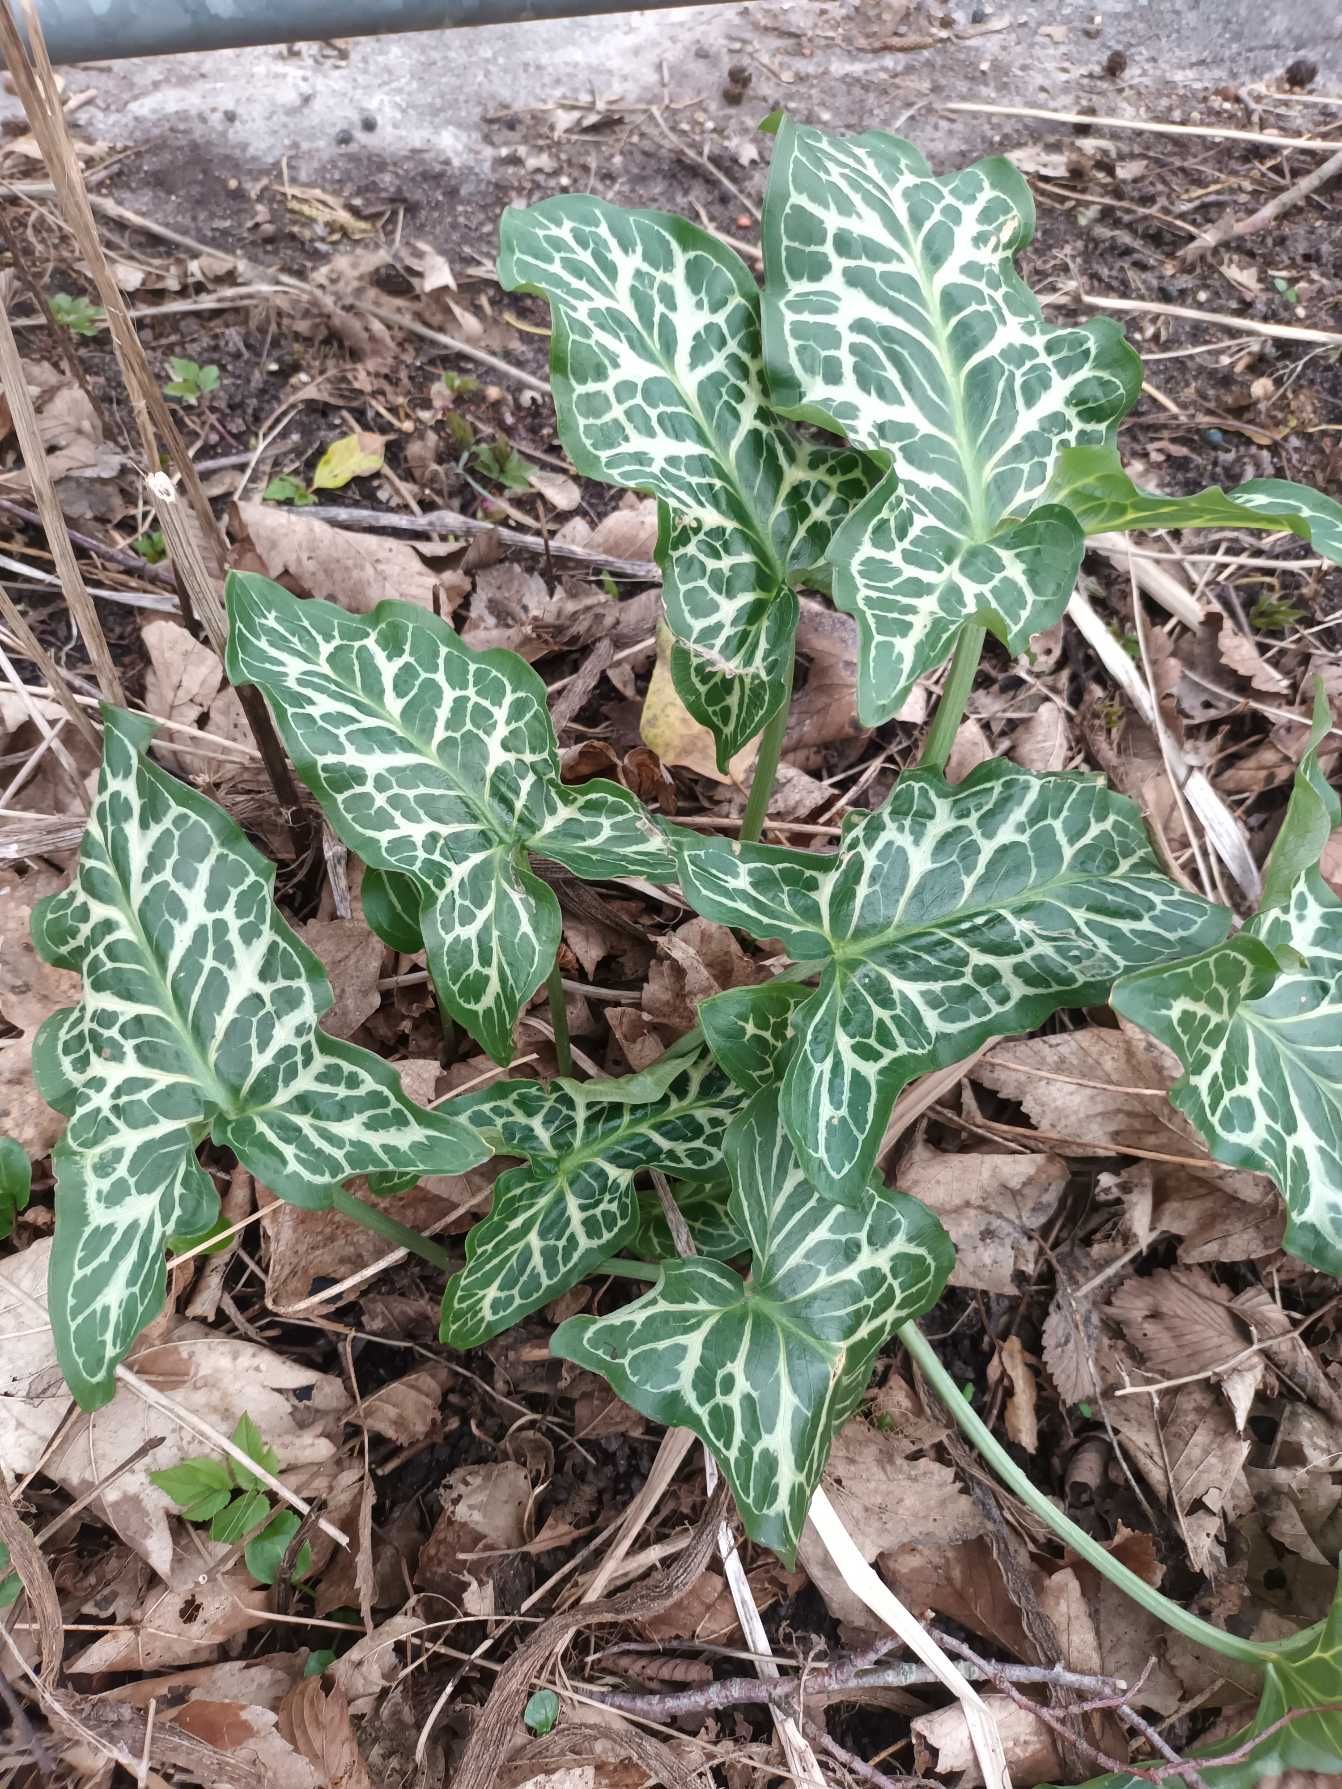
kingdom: Plantae
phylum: Tracheophyta
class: Liliopsida
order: Alismatales
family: Araceae
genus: Arum
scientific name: Arum italicum
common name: Italiensk arum
